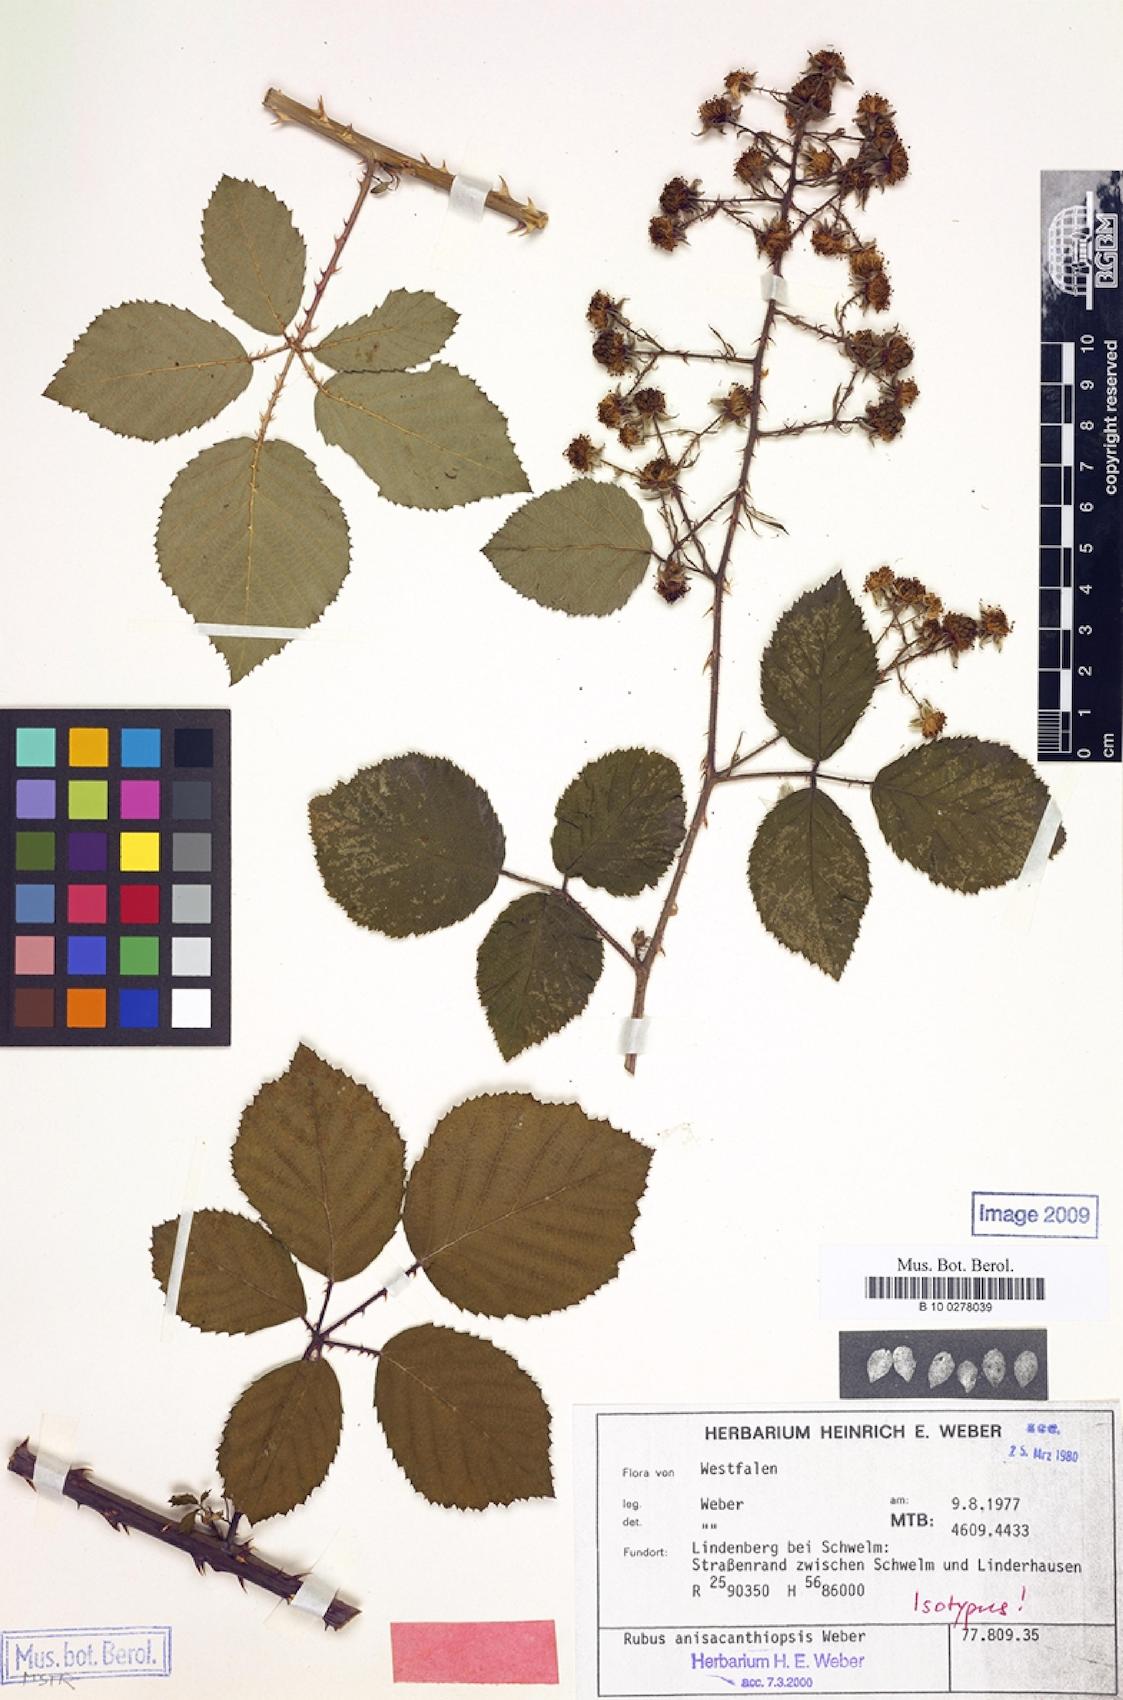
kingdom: Plantae
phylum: Tracheophyta
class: Magnoliopsida
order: Rosales
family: Rosaceae
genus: Rubus
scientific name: Rubus anisacanthiopsis
